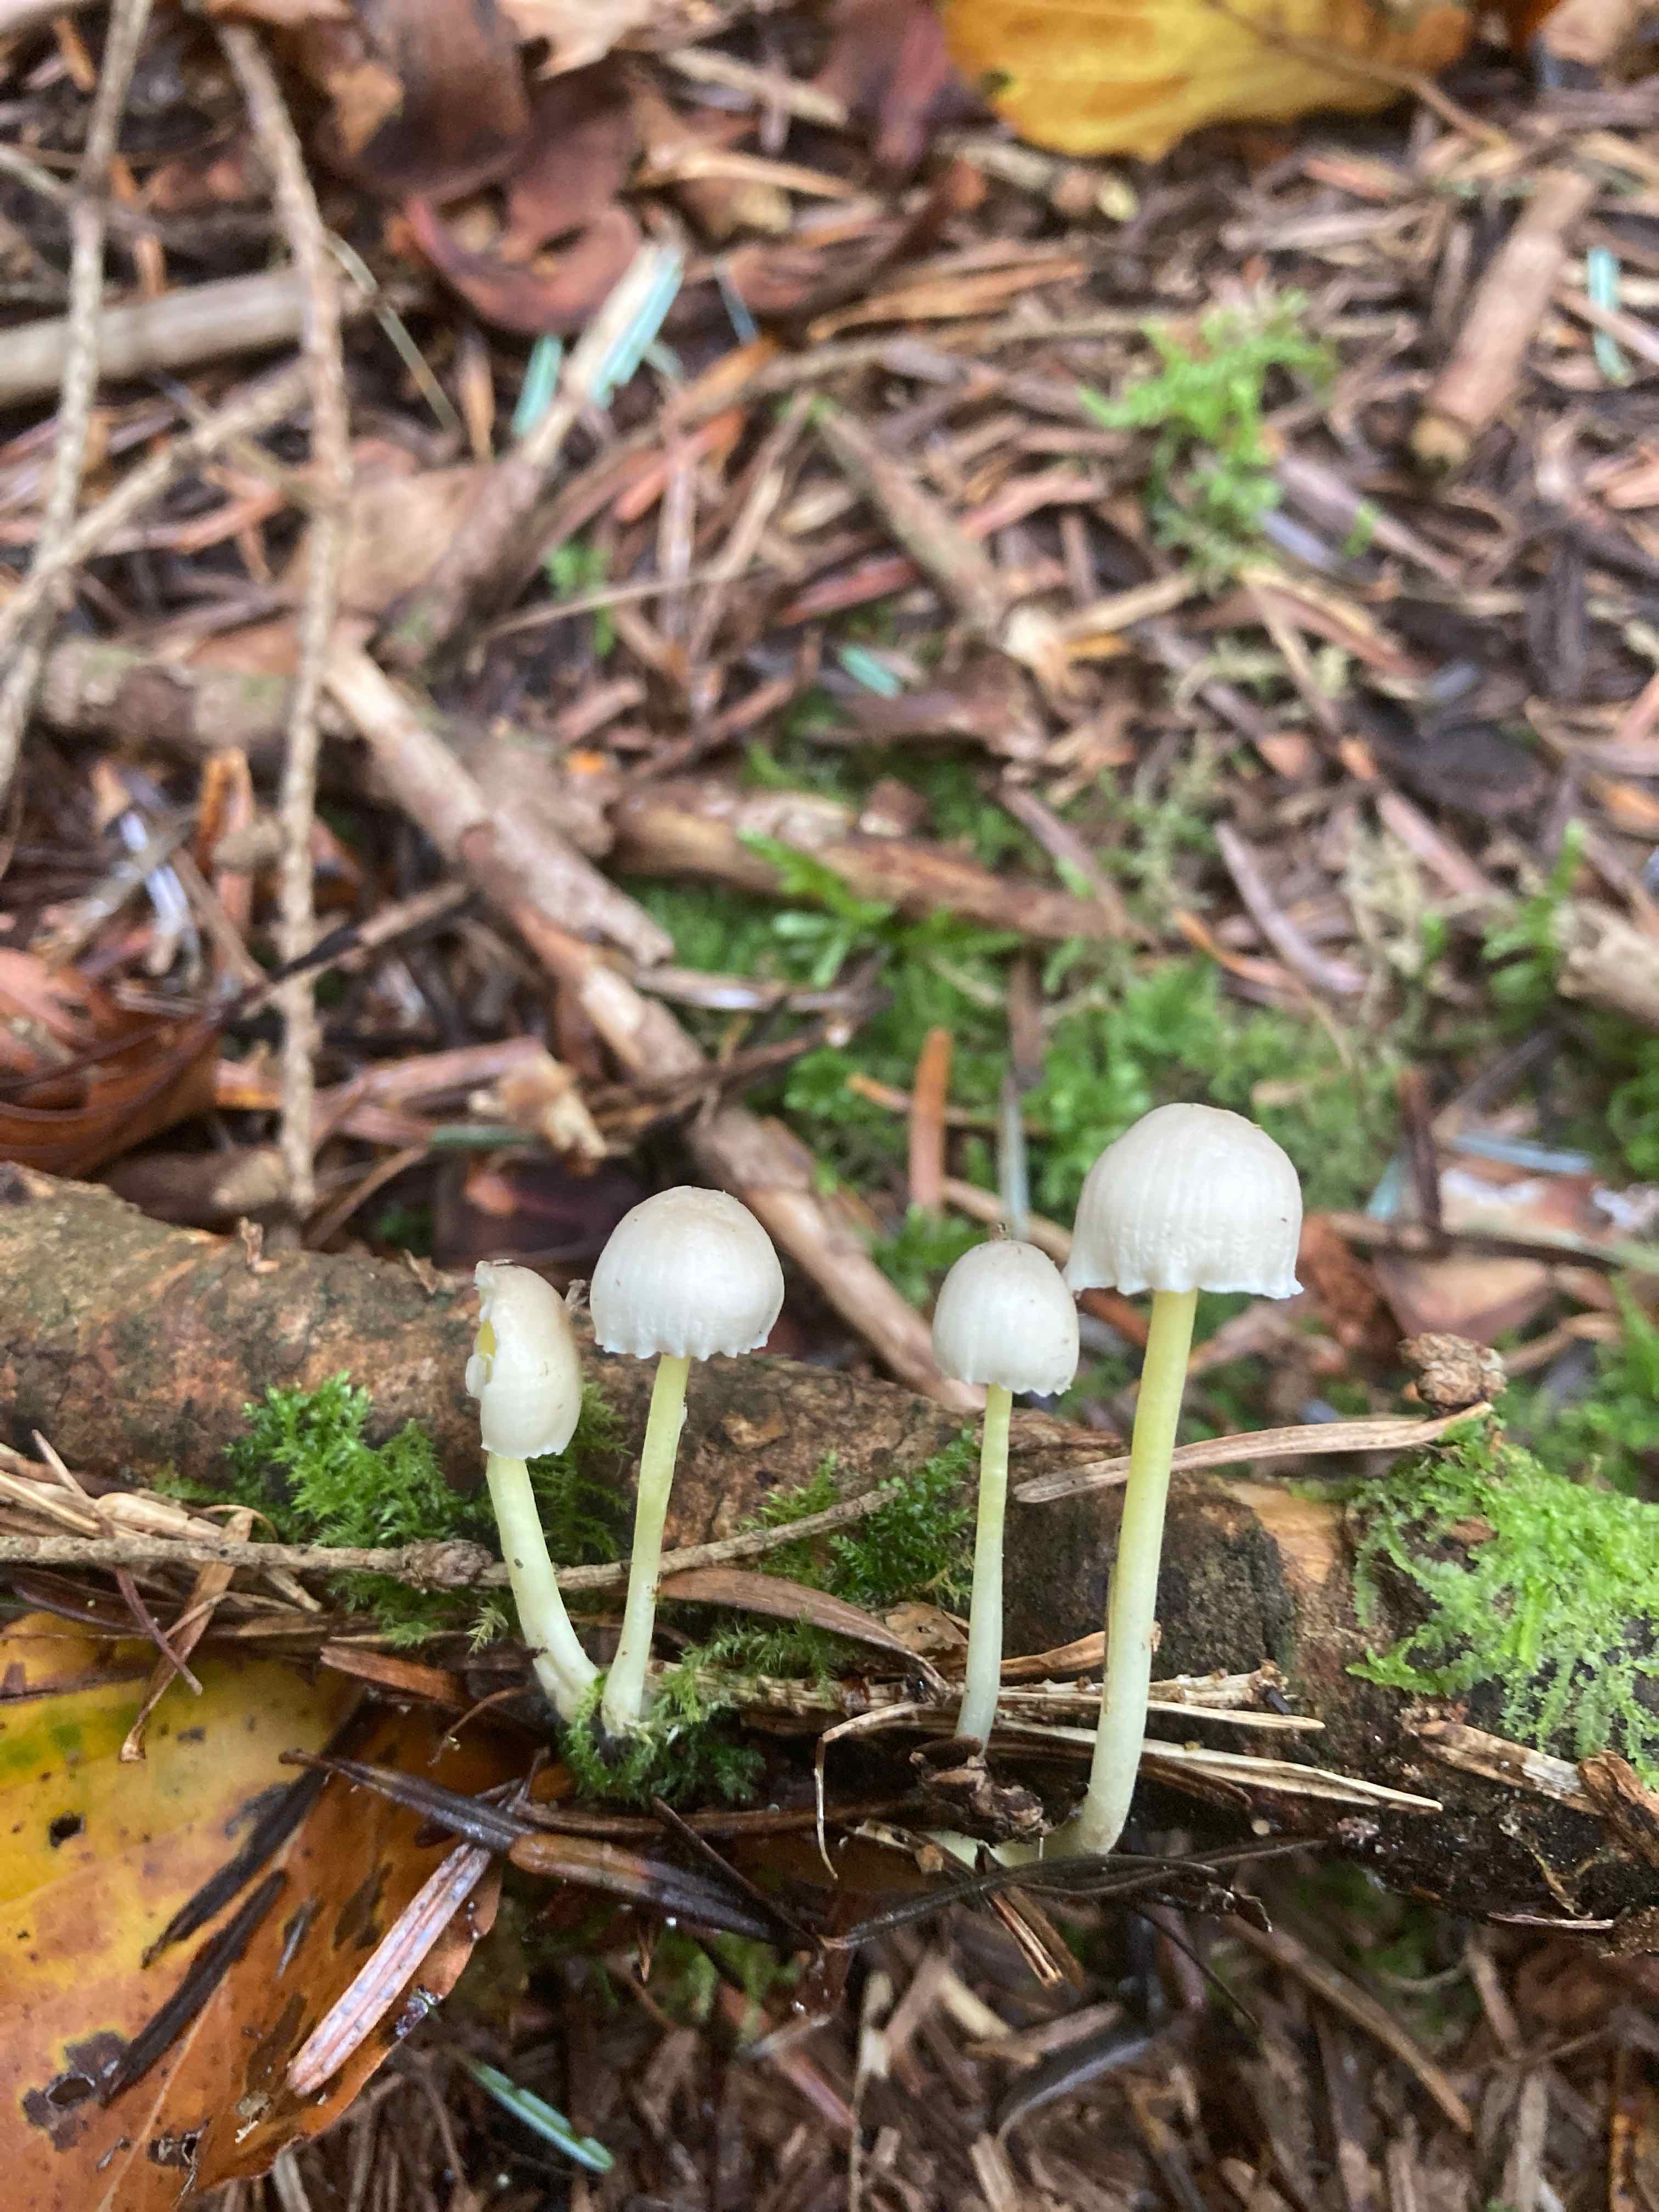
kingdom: Fungi
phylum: Basidiomycota
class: Agaricomycetes
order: Agaricales
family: Mycenaceae
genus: Mycena
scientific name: Mycena epipterygia
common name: gulstokket huesvamp
